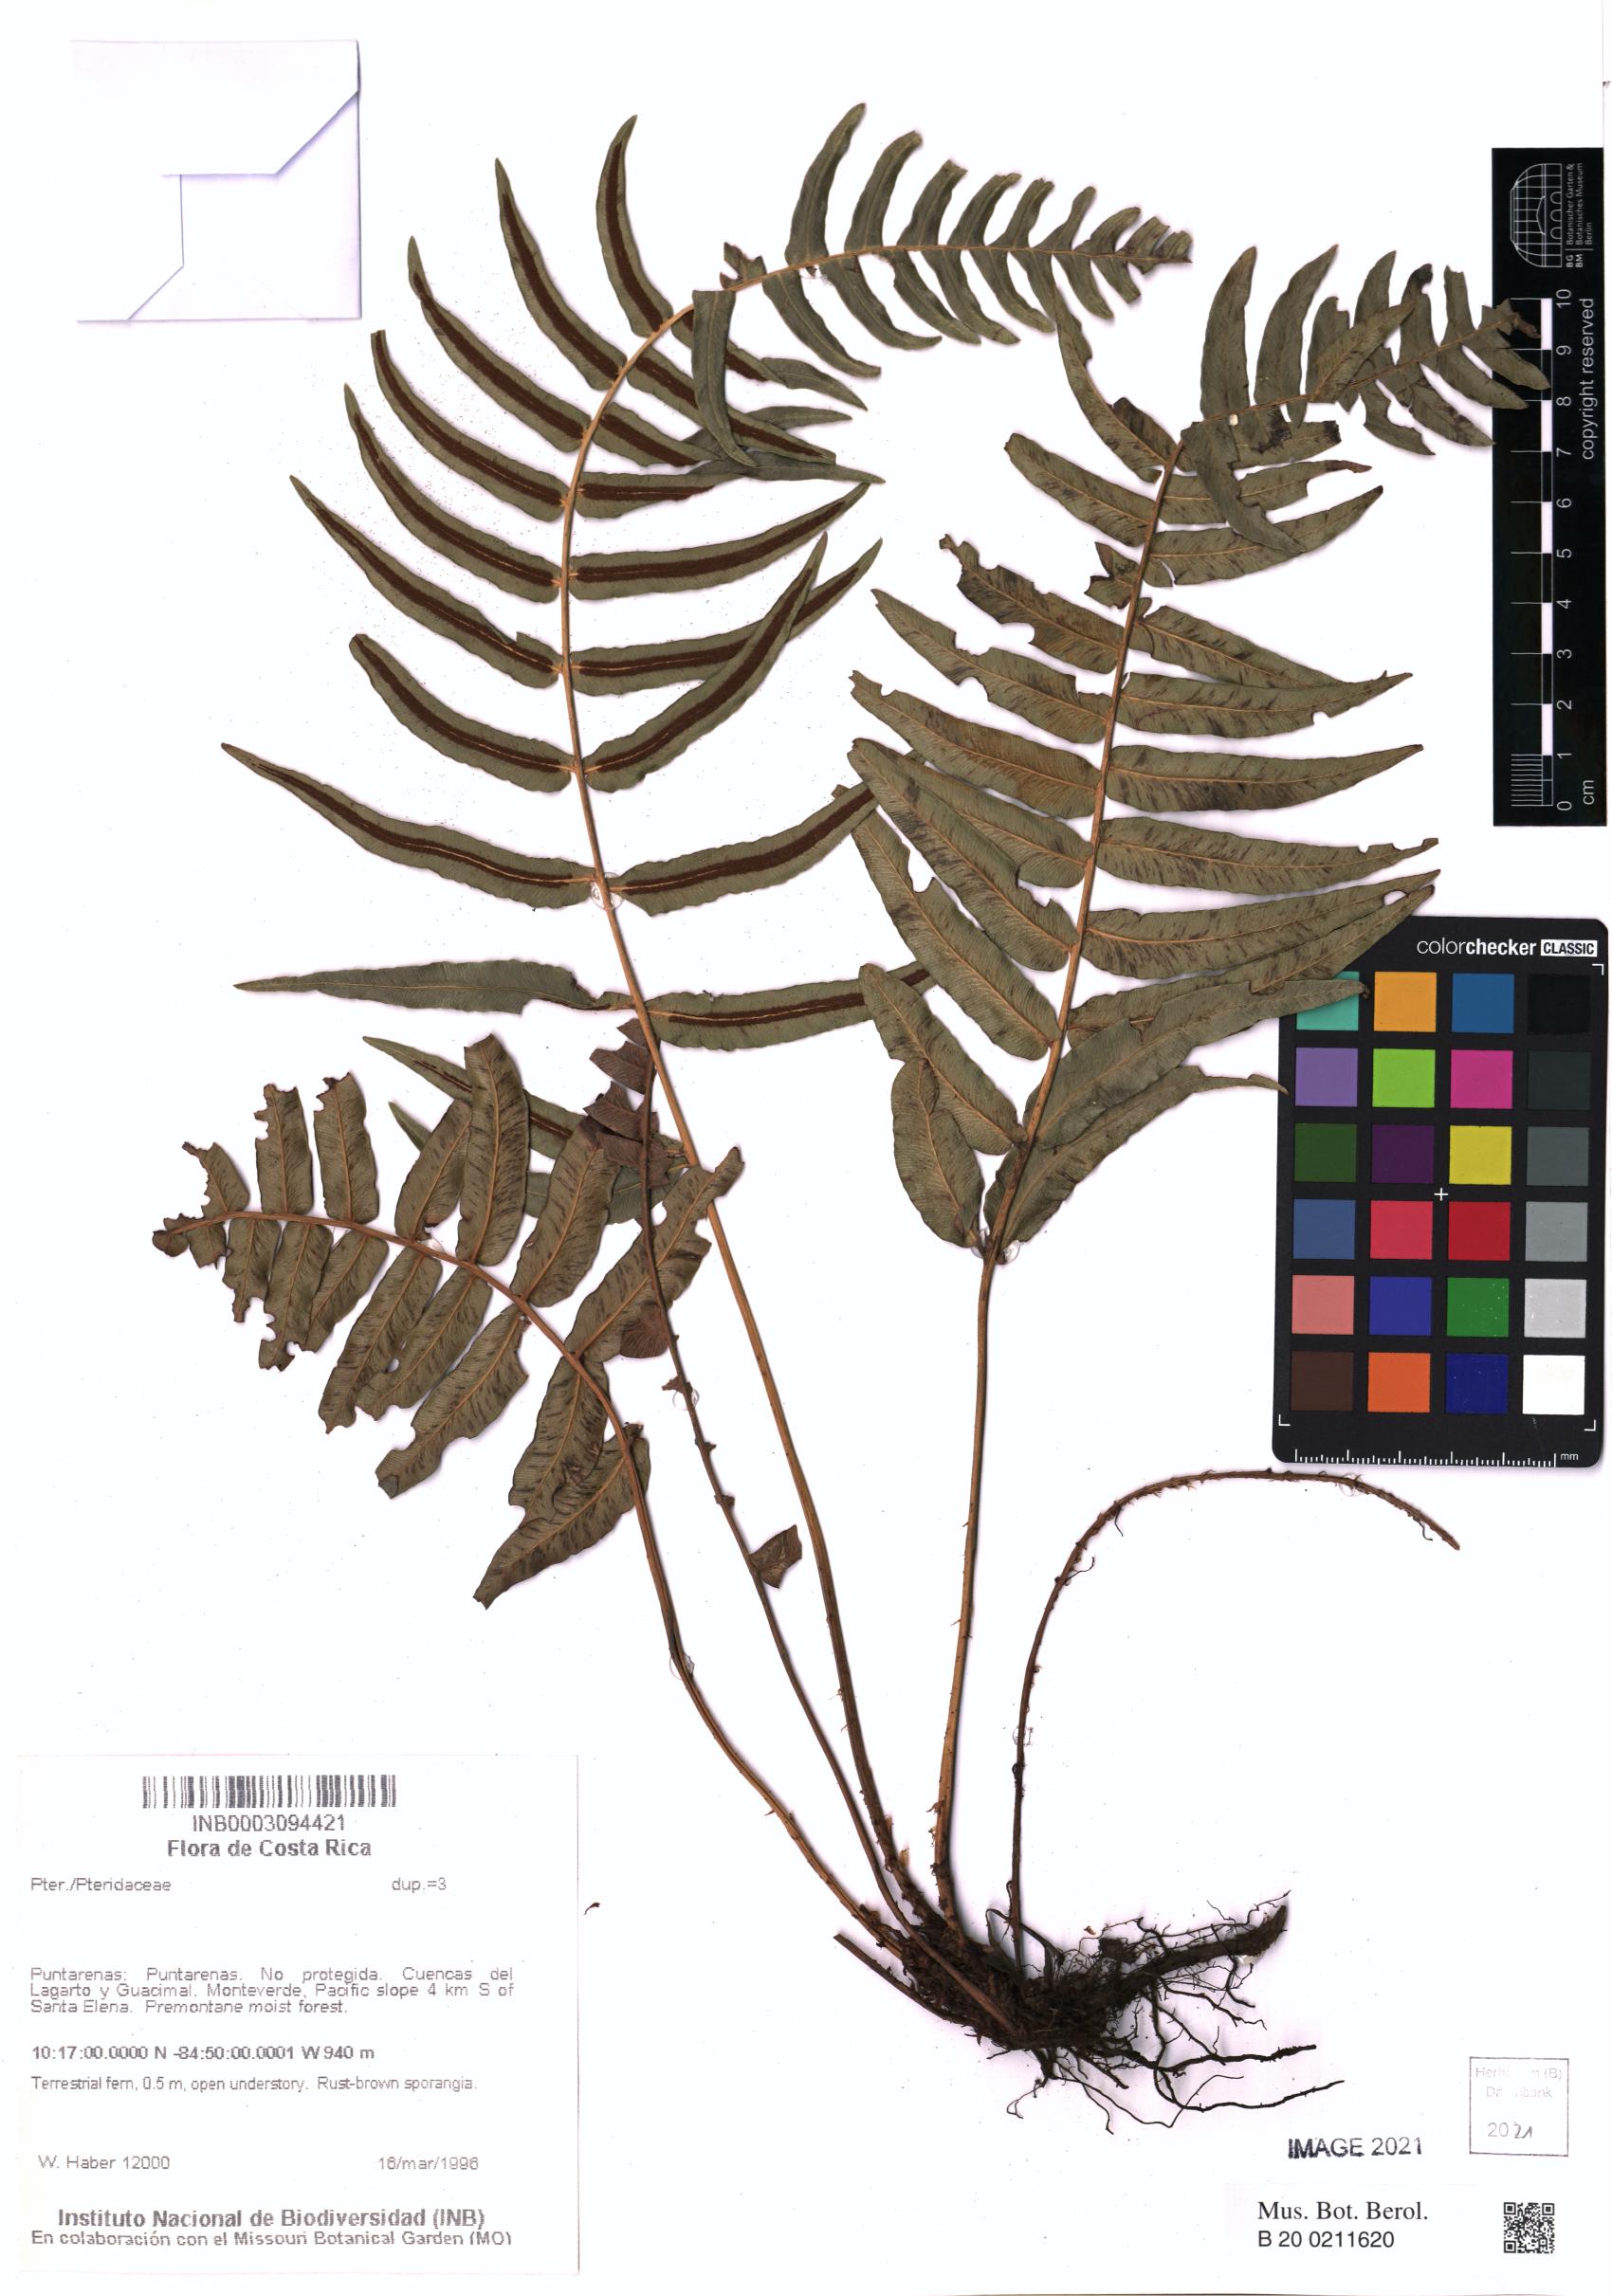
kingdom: Plantae
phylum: Tracheophyta
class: Polypodiopsida
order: Polypodiales
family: Pteridaceae
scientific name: Pteridaceae
